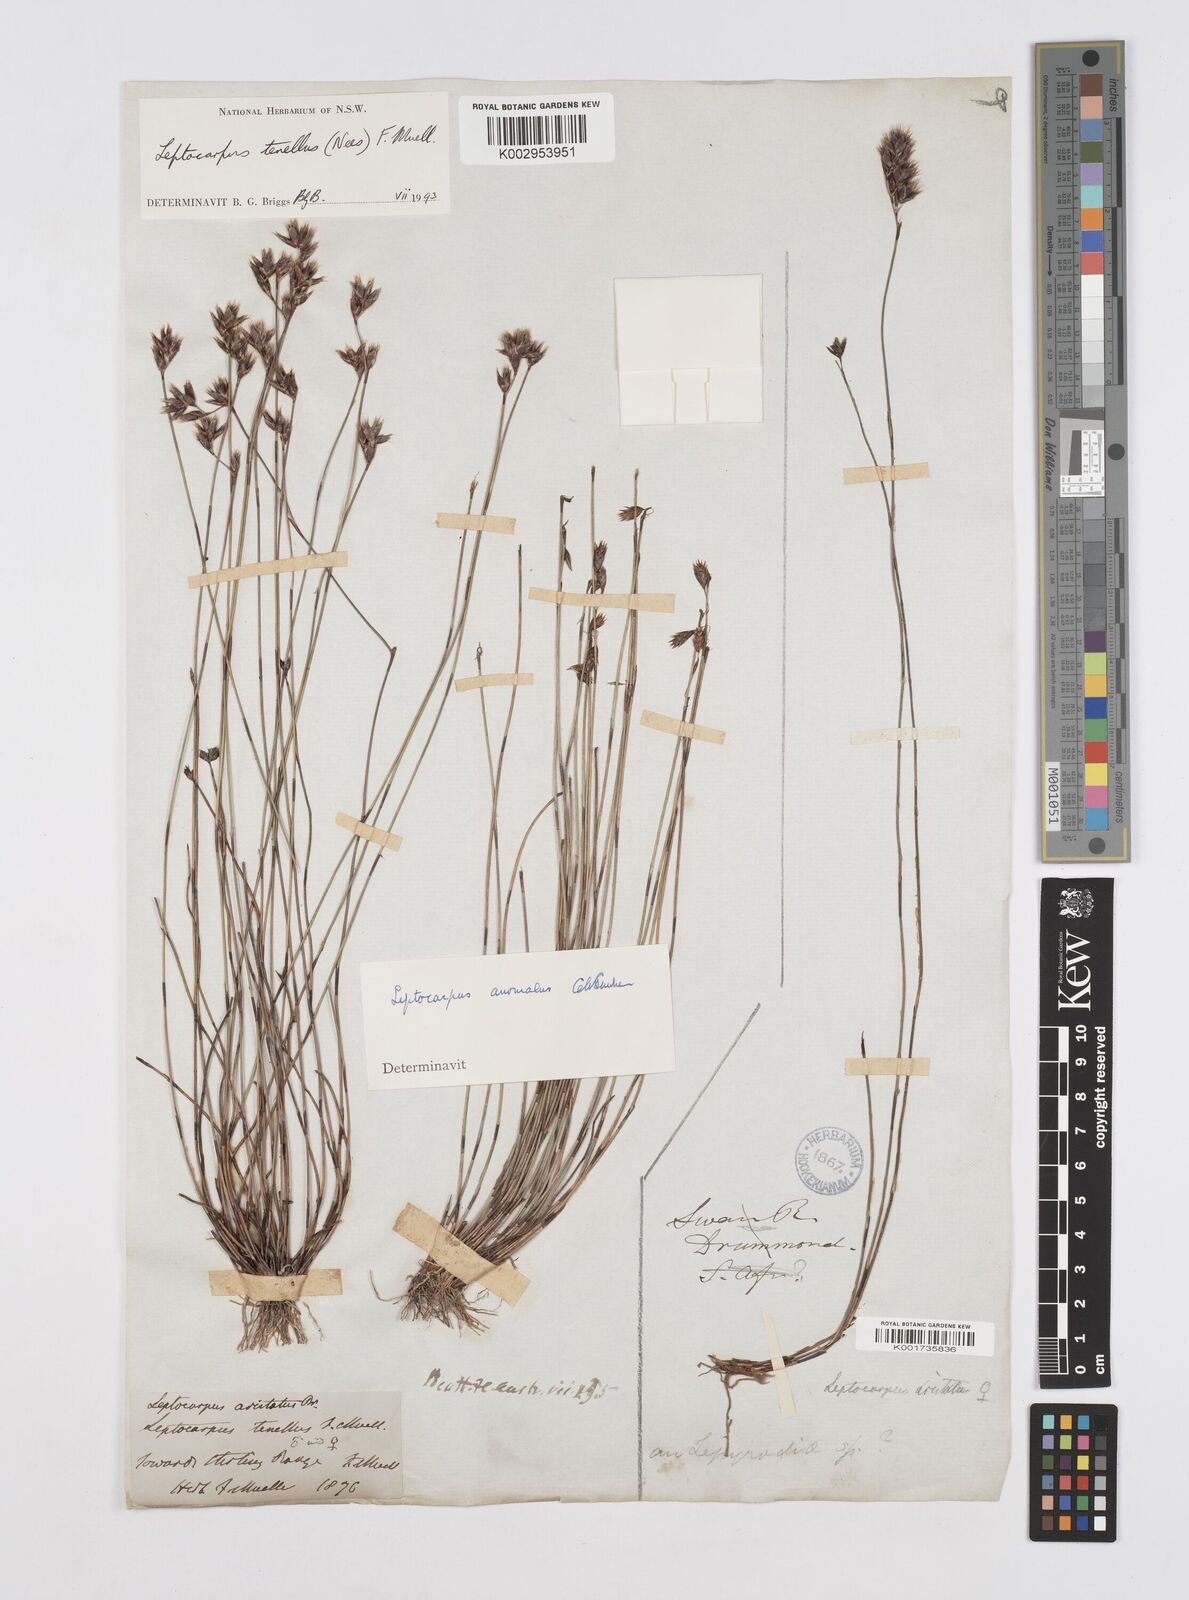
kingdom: Plantae
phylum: Tracheophyta
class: Liliopsida
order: Poales
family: Restionaceae
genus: Chaetanthus
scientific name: Chaetanthus tenellus
